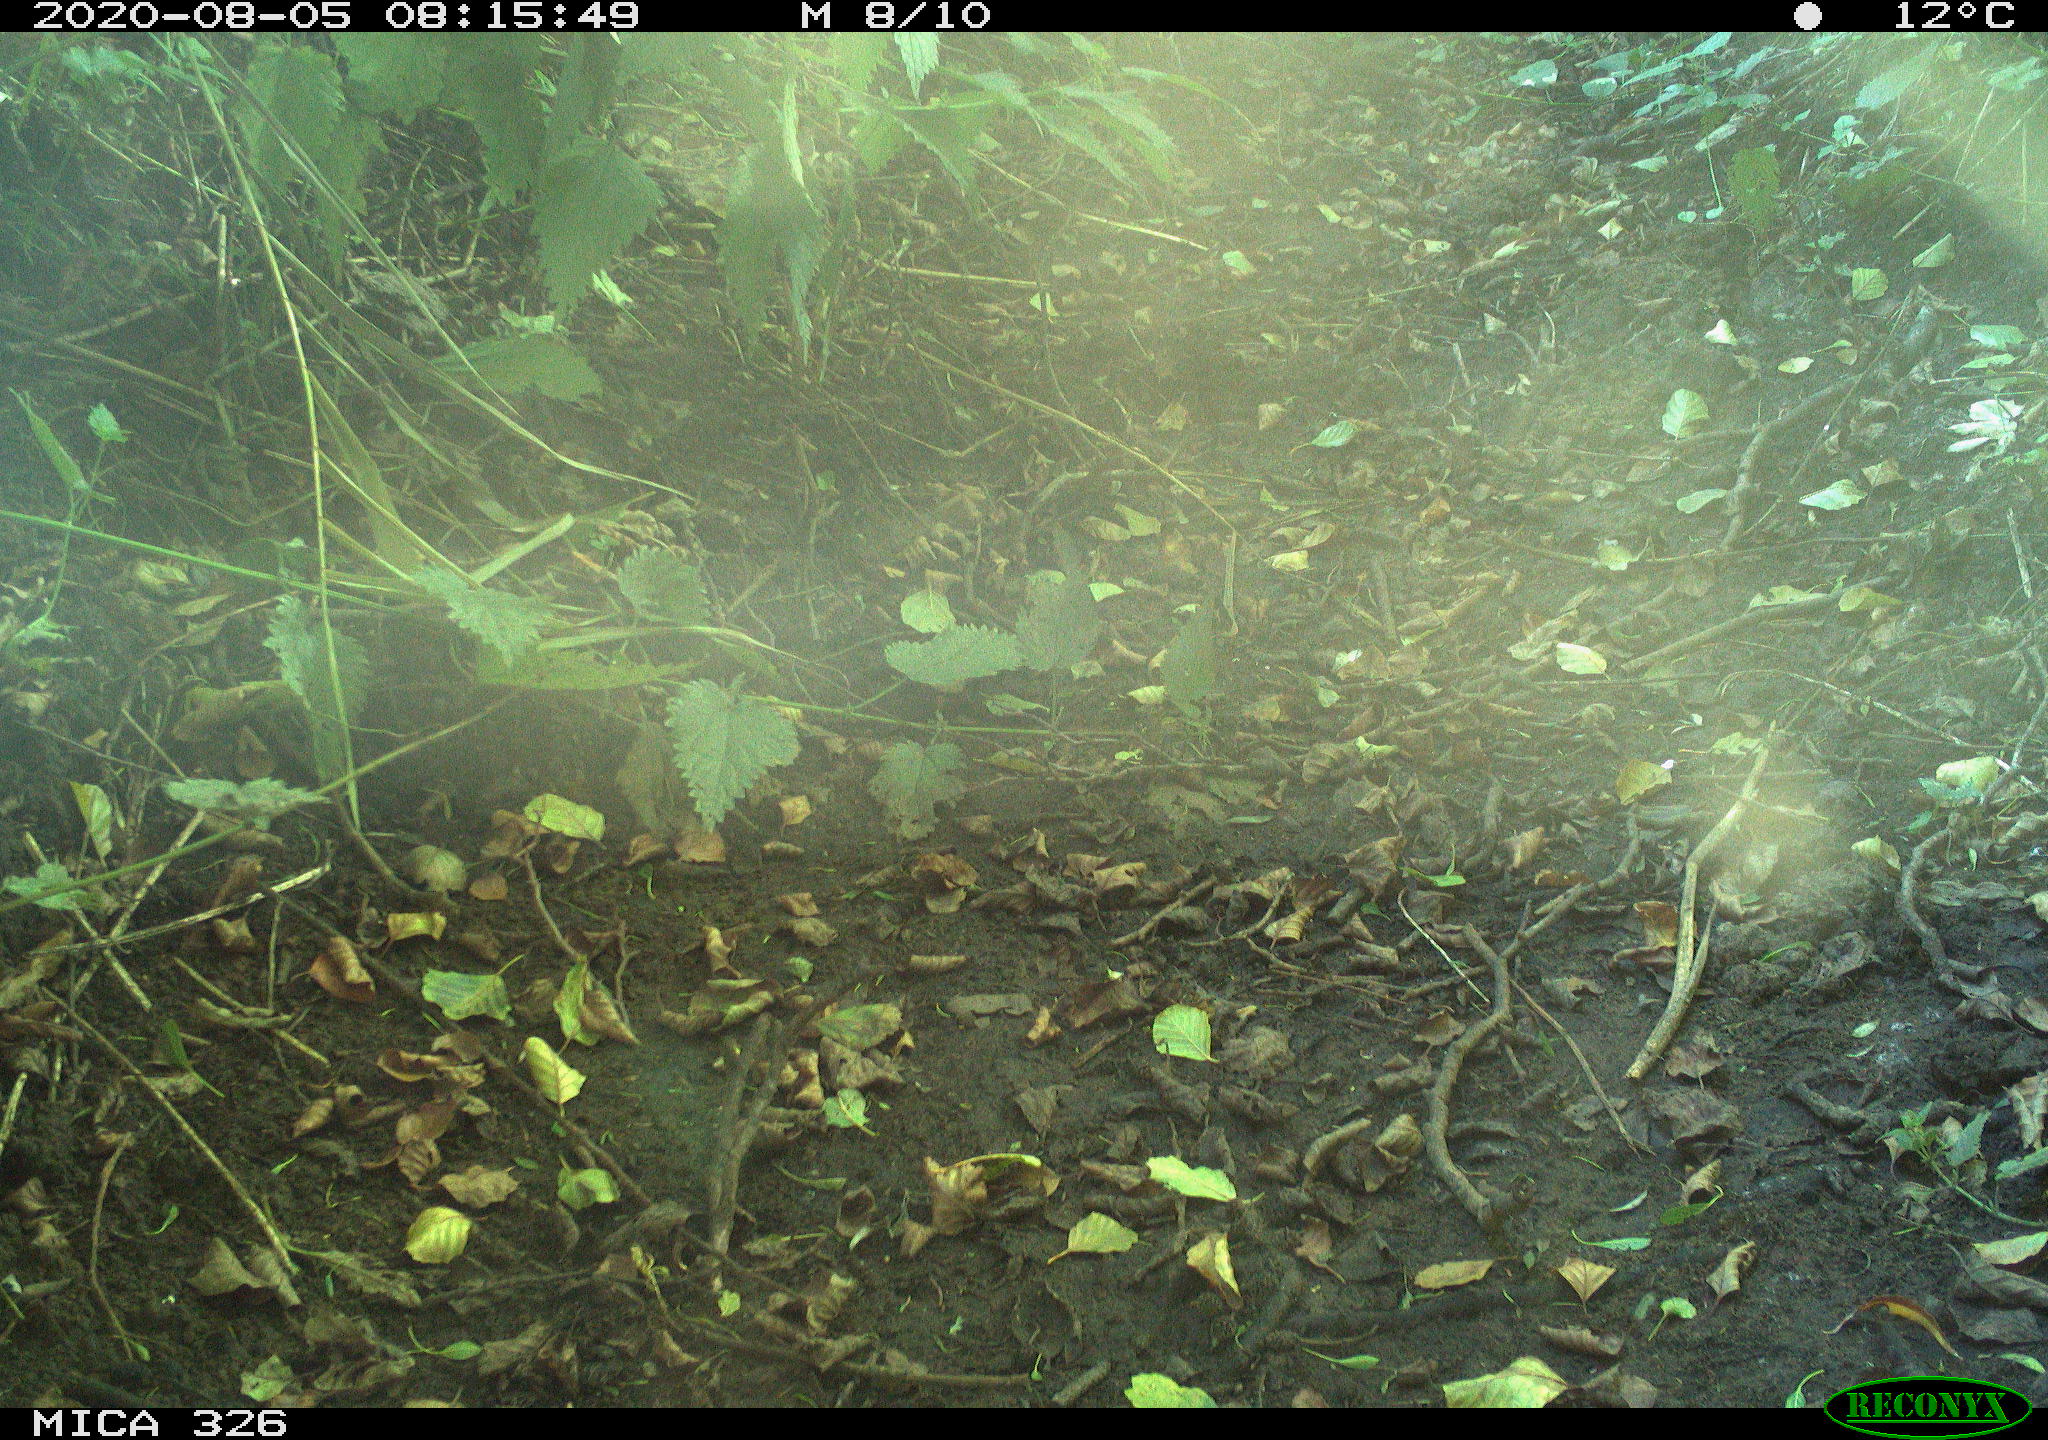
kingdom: Animalia
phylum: Chordata
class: Aves
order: Passeriformes
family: Muscicapidae
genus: Erithacus
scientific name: Erithacus rubecula
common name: European robin
